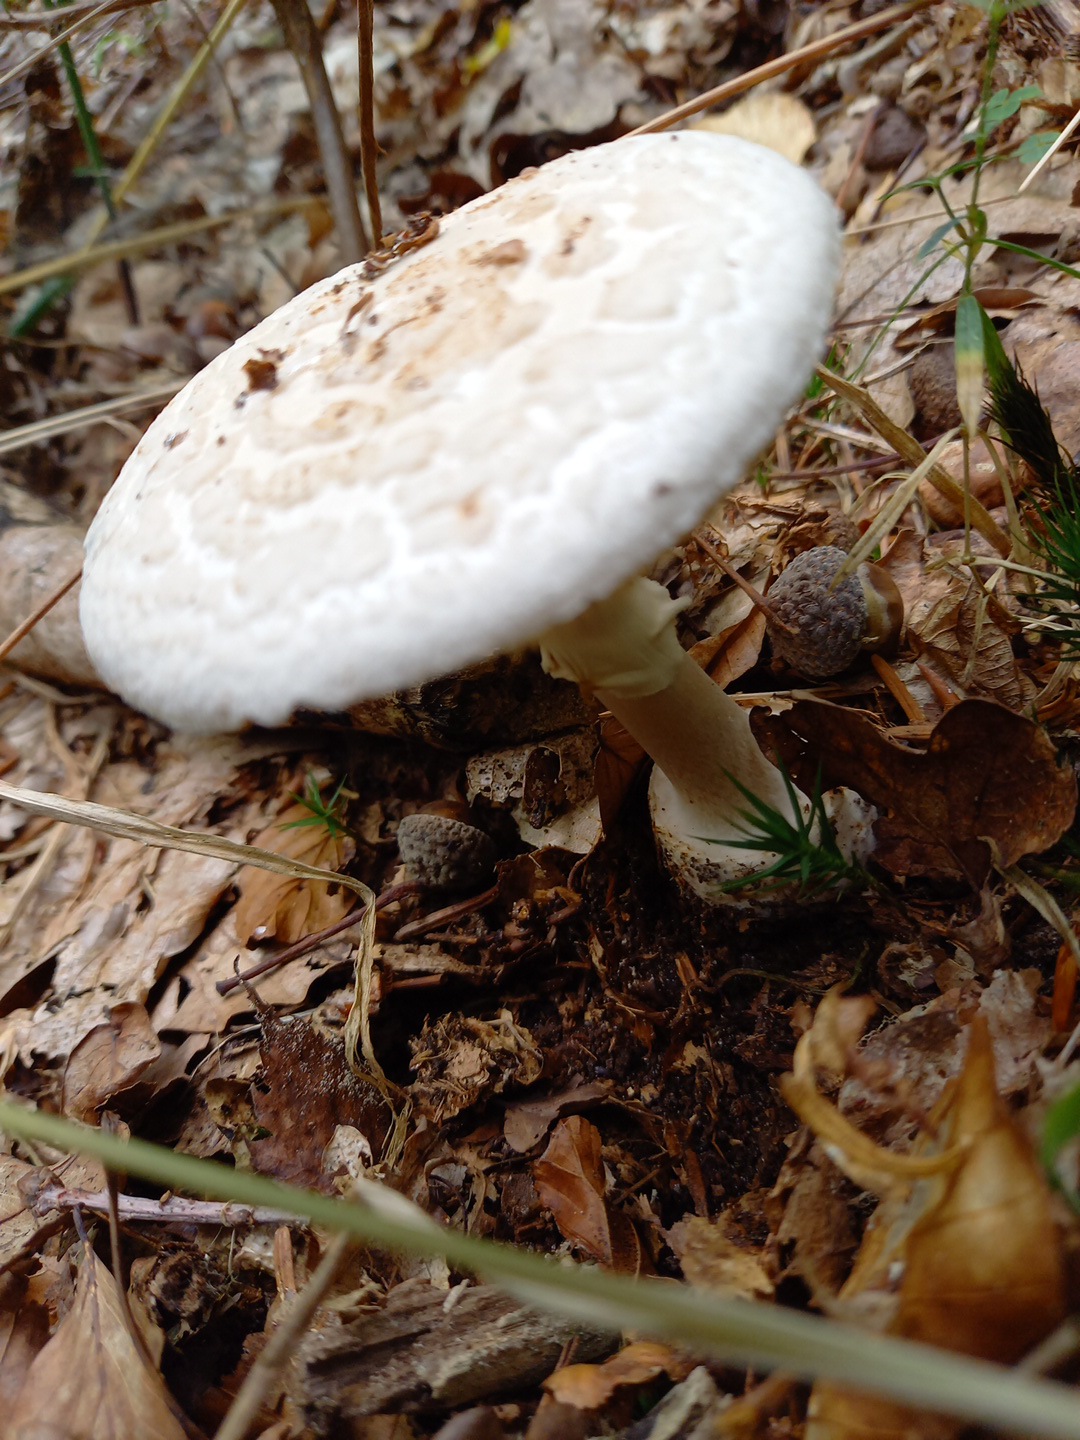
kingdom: Fungi
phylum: Basidiomycota
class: Agaricomycetes
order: Agaricales
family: Amanitaceae
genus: Amanita
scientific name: Amanita citrina
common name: False death-cap
